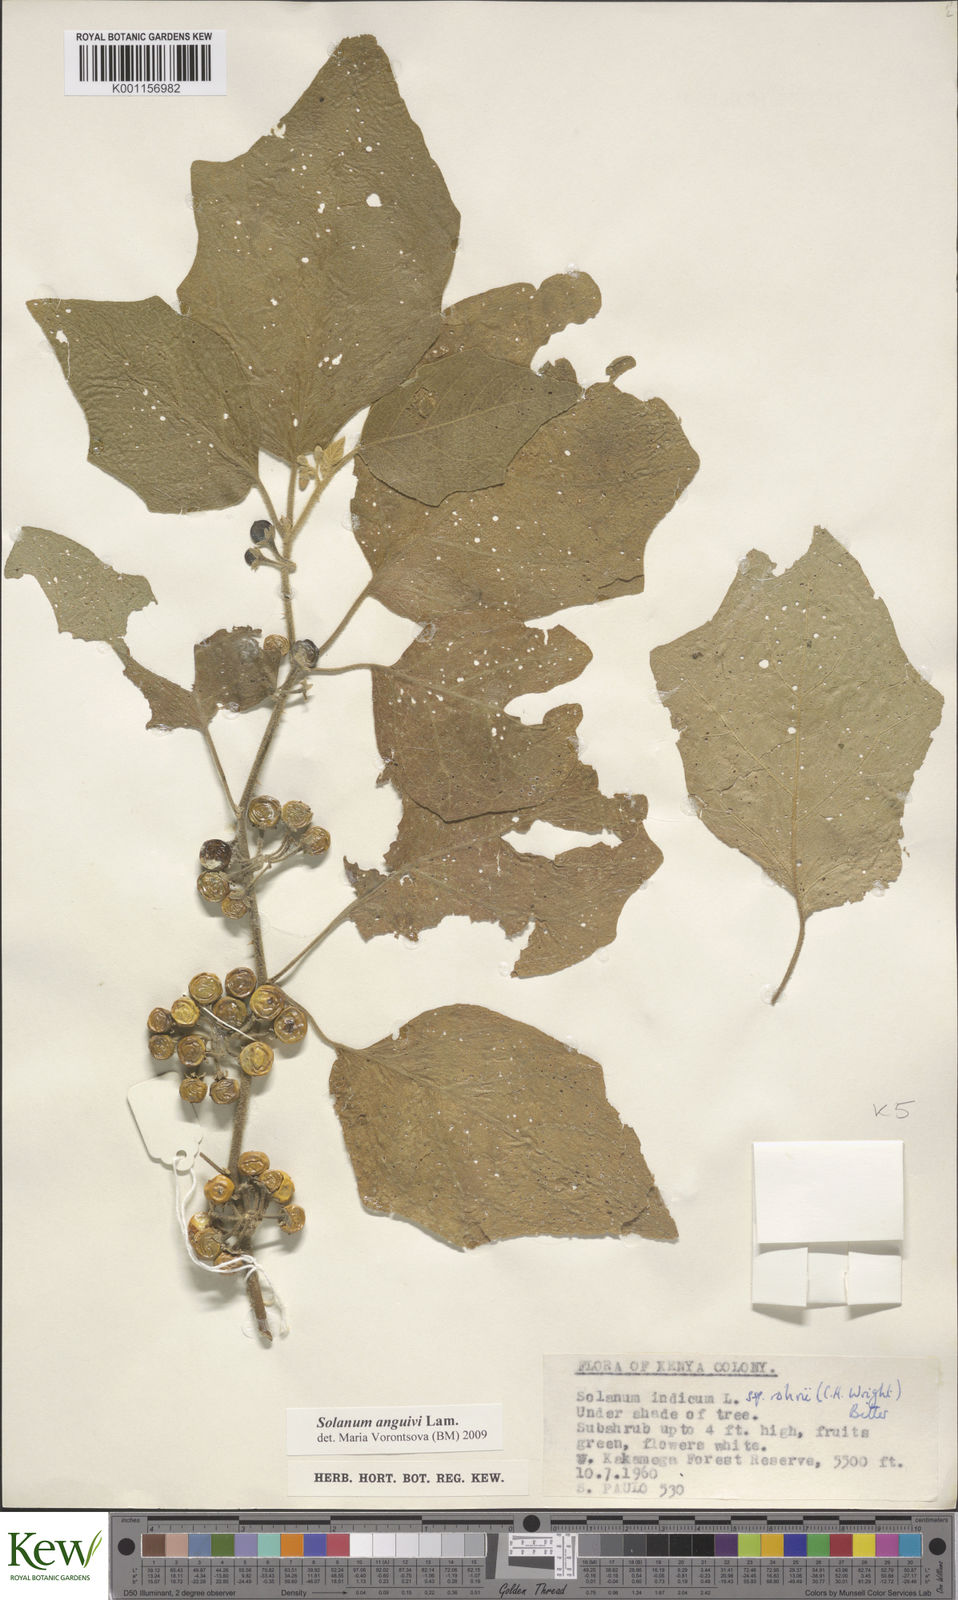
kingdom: Plantae
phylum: Tracheophyta
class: Magnoliopsida
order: Solanales
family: Solanaceae
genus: Solanum
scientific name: Solanum anguivi
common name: Forest bitterberry
